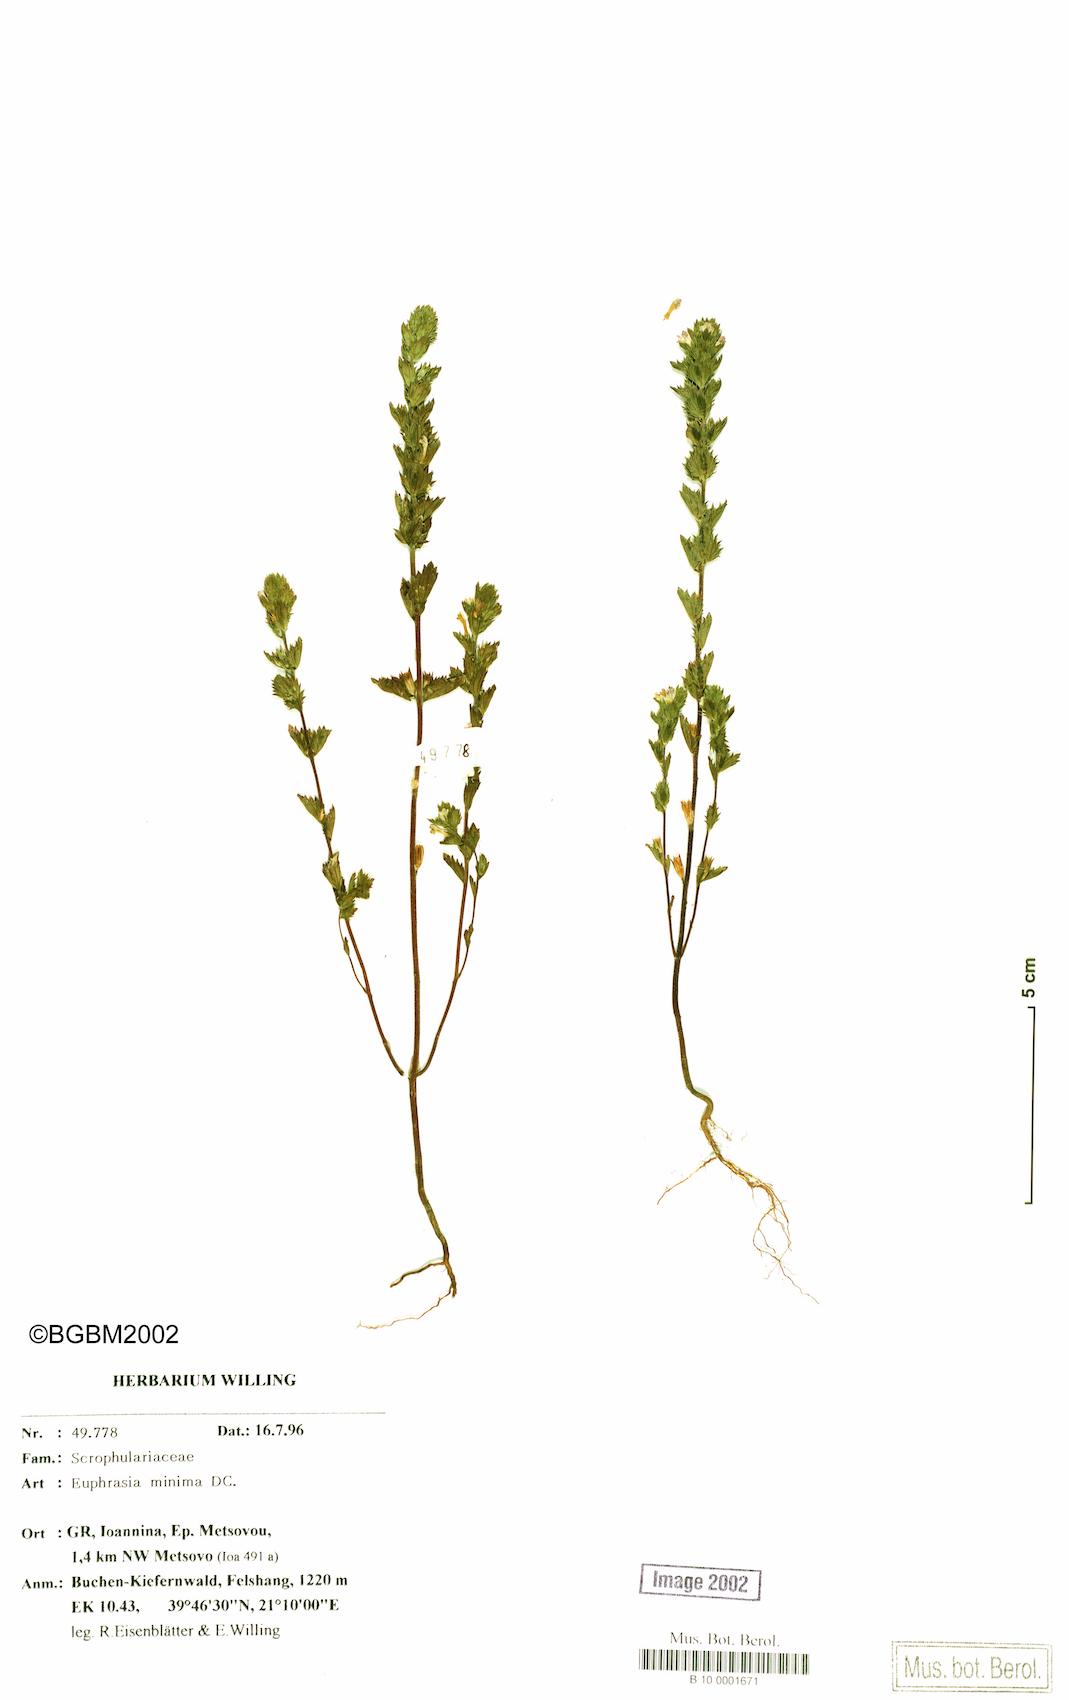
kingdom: Plantae
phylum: Tracheophyta
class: Magnoliopsida
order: Lamiales
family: Orobanchaceae
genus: Euphrasia
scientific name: Euphrasia minima
